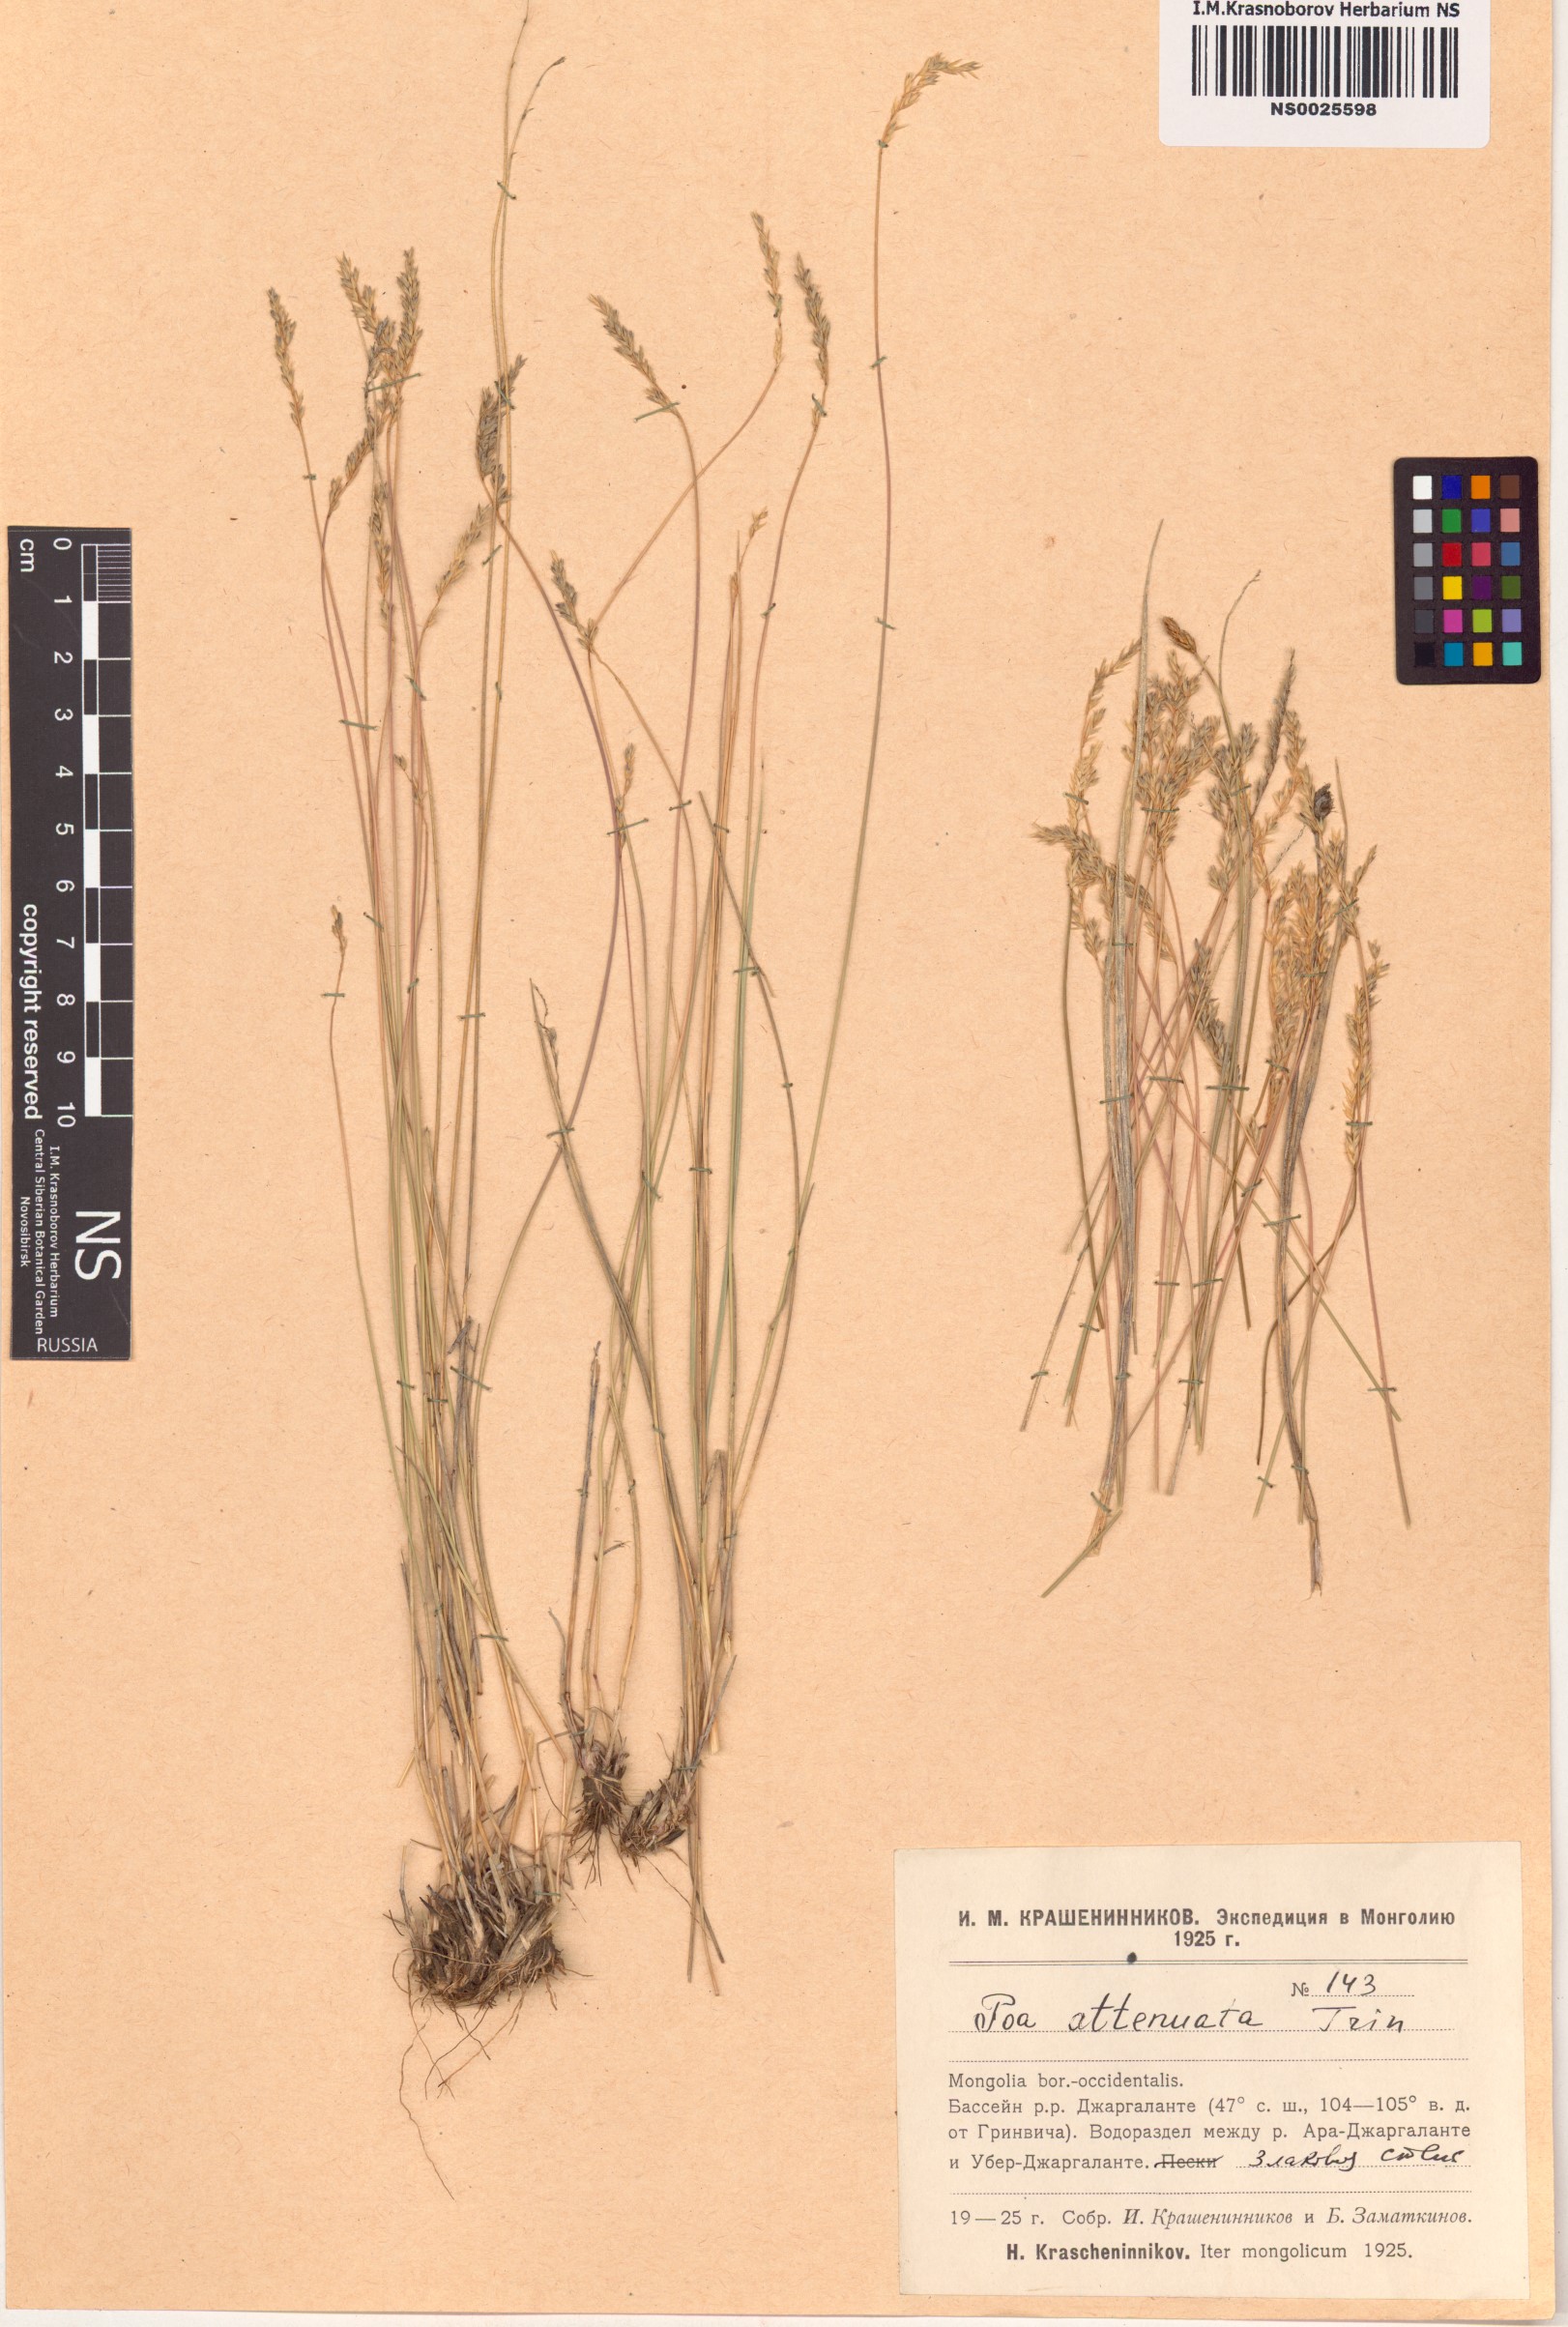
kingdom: Plantae
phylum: Tracheophyta
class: Liliopsida
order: Poales
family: Poaceae
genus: Poa
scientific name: Poa attenuata
